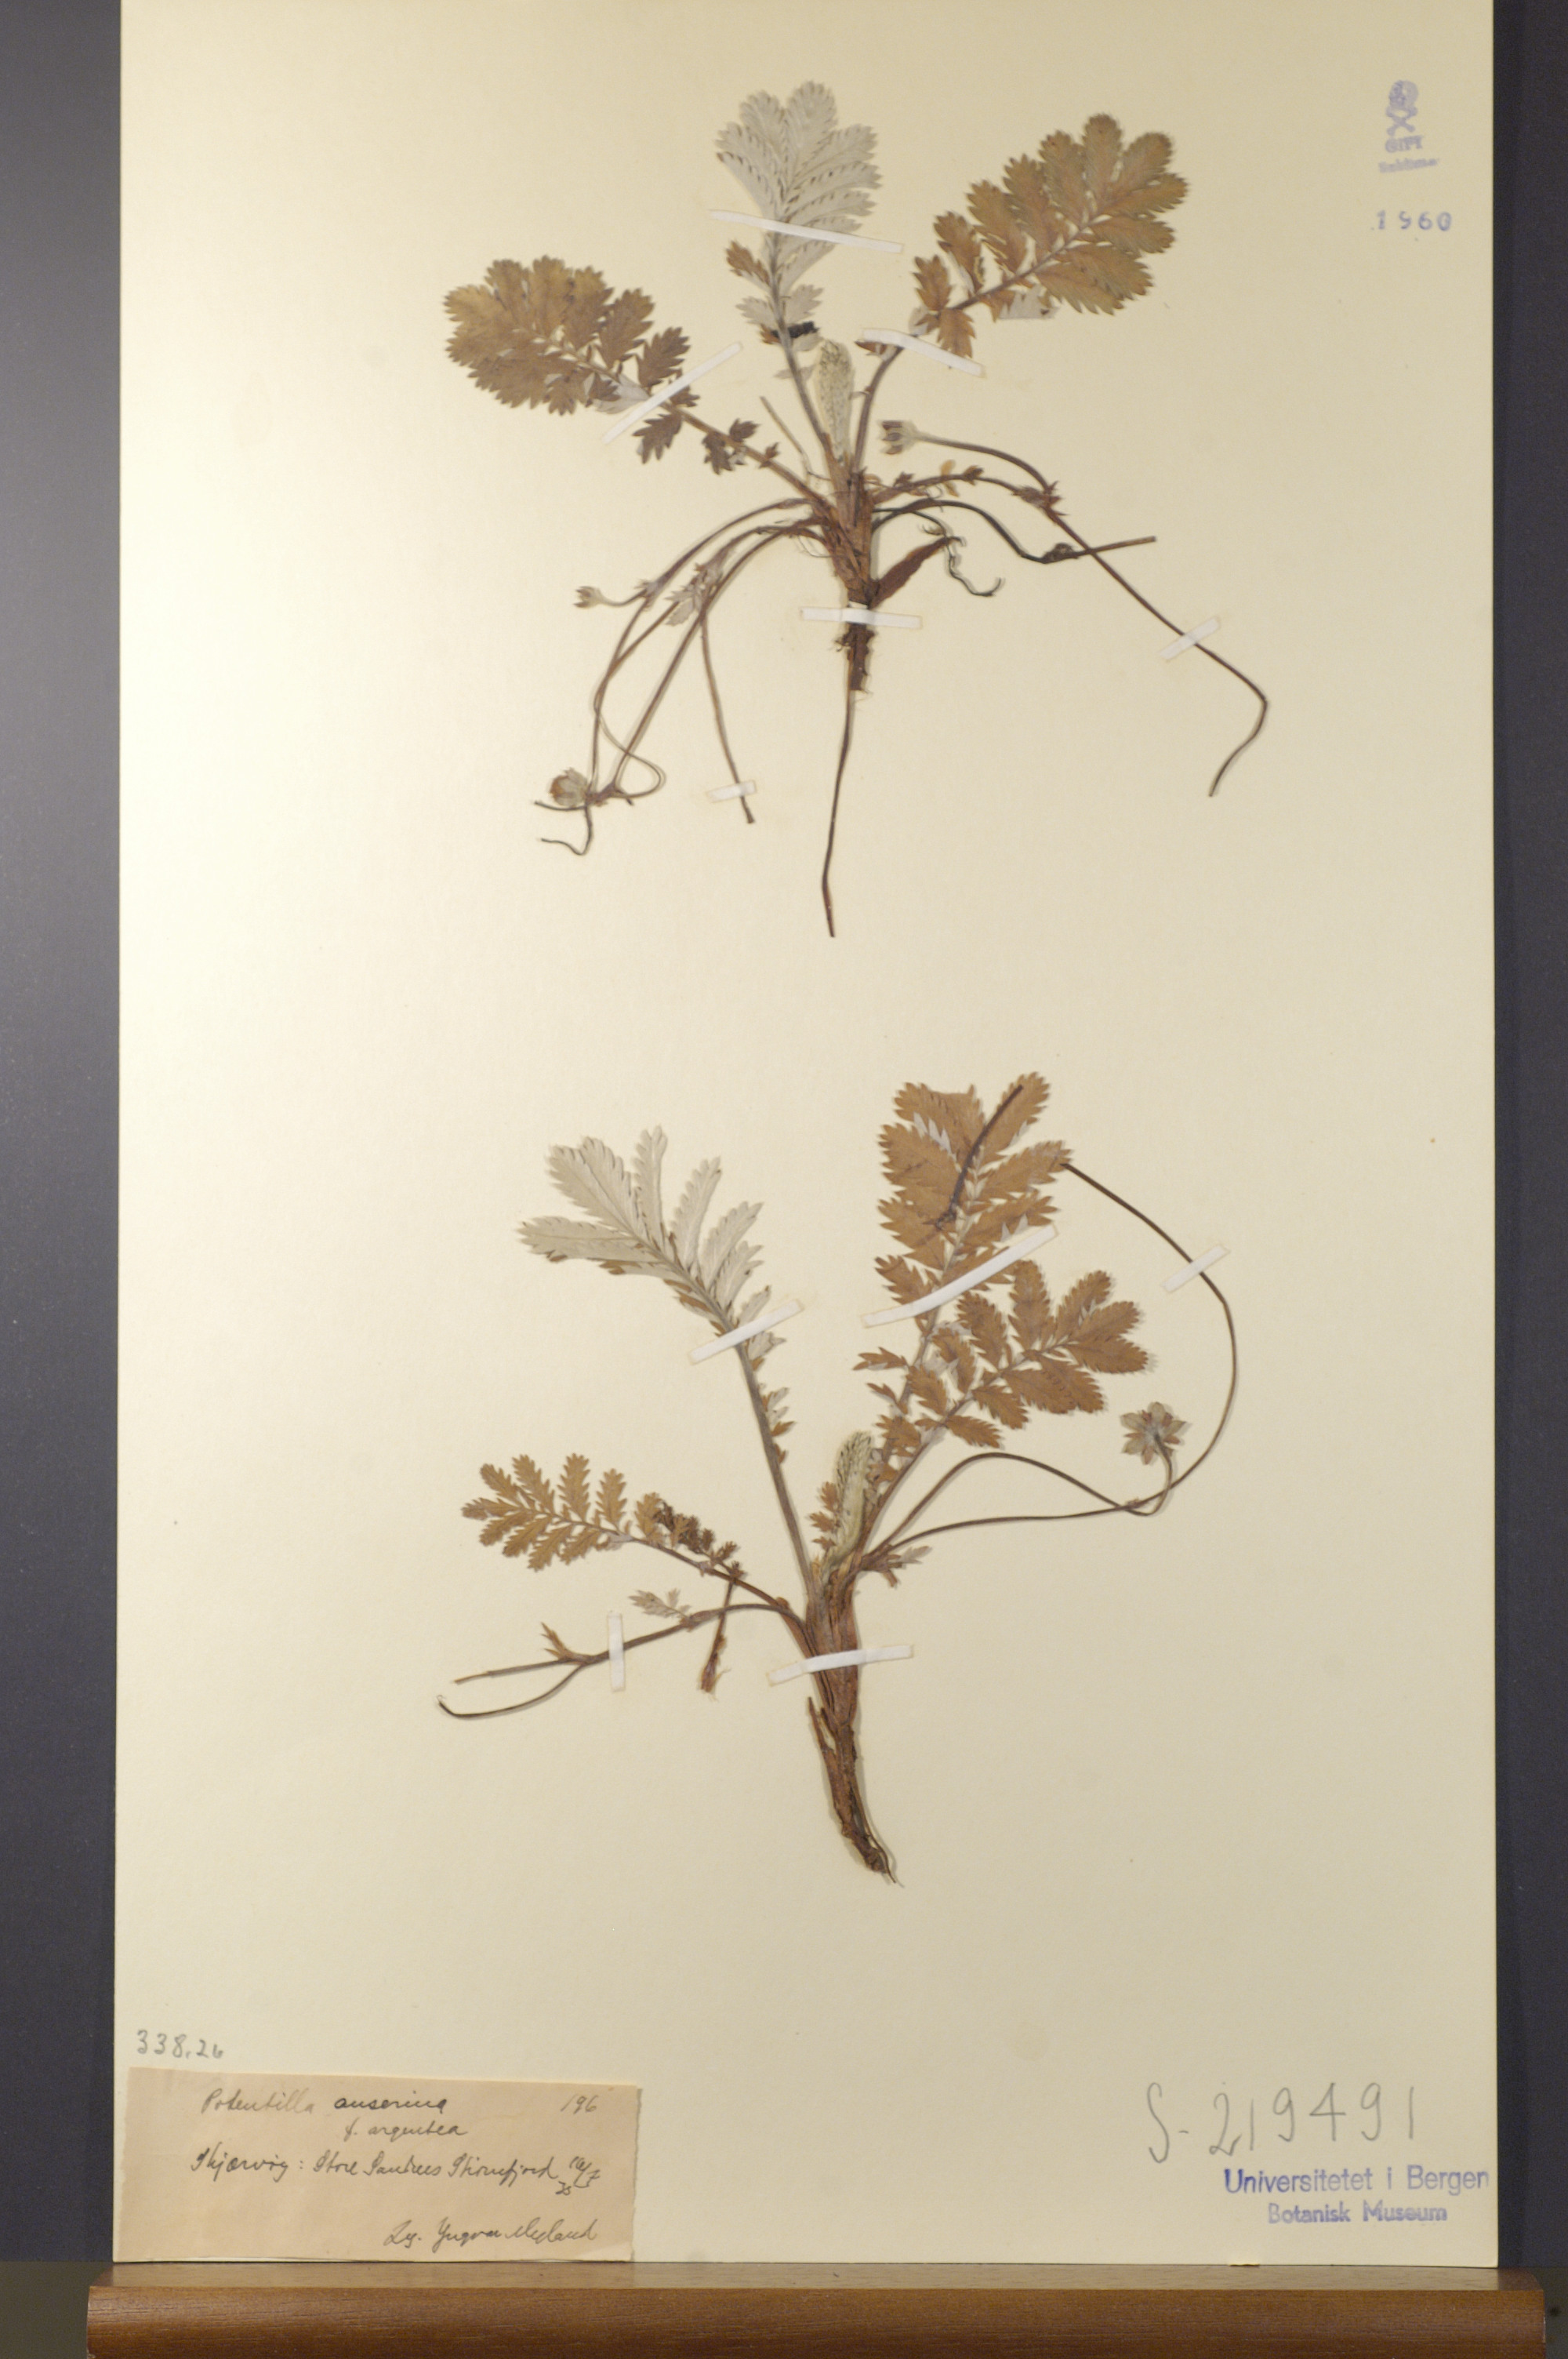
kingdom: Plantae
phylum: Tracheophyta
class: Magnoliopsida
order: Rosales
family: Rosaceae
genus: Argentina
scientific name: Argentina anserina
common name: Common silverweed
